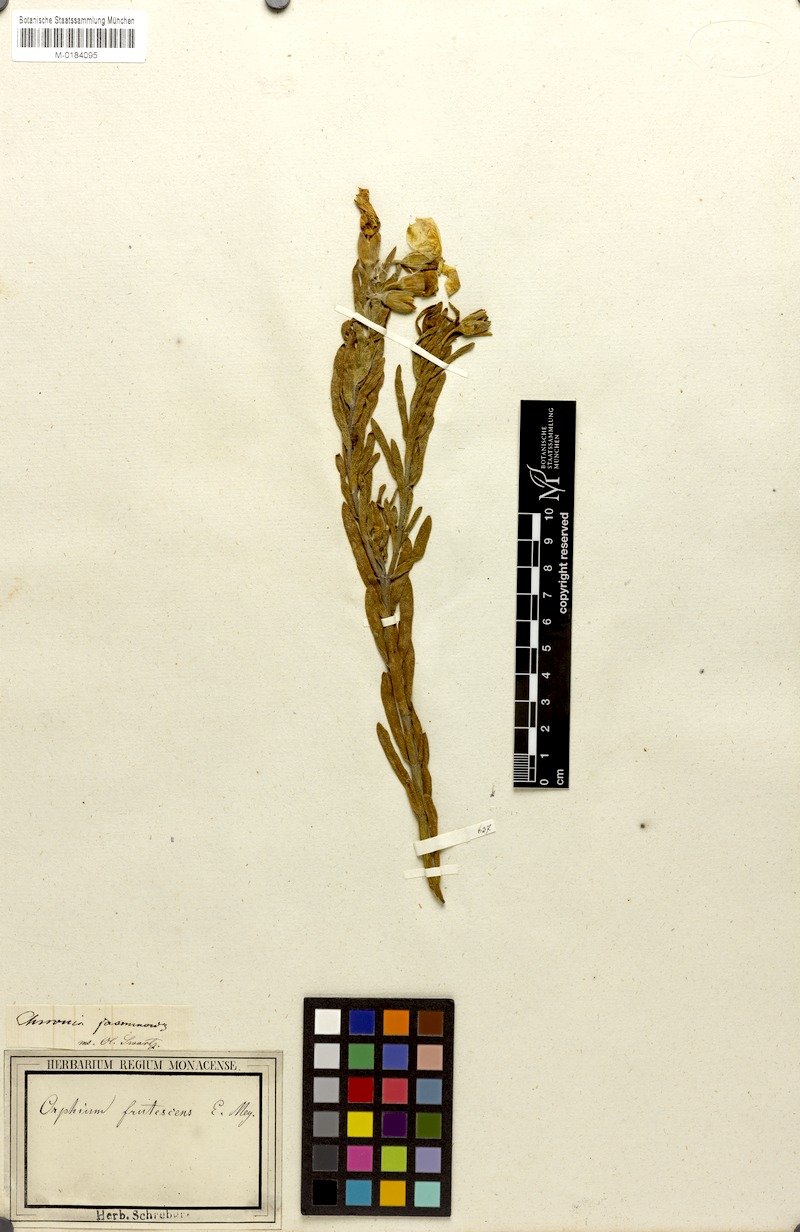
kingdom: Plantae
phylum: Tracheophyta
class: Magnoliopsida
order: Gentianales
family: Gentianaceae
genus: Orphium
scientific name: Orphium frutescens
